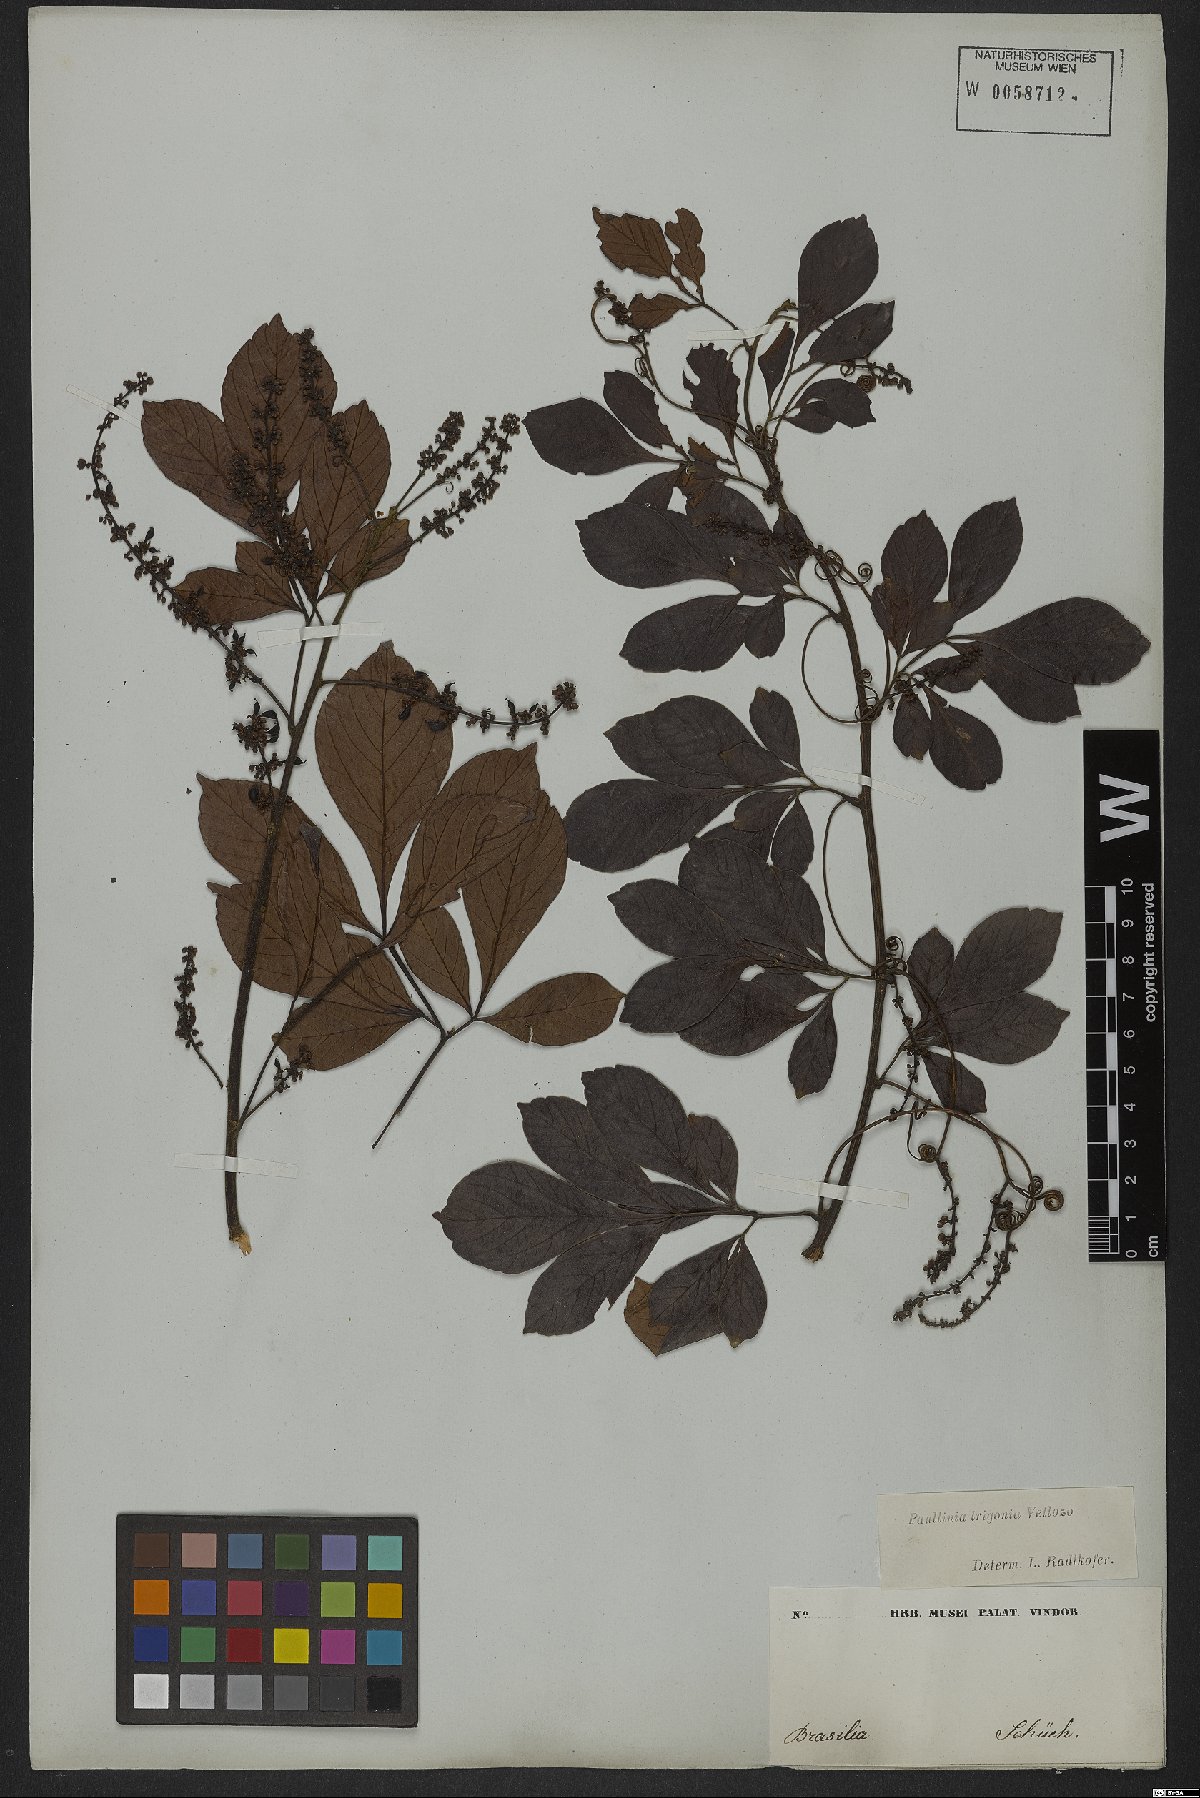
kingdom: Plantae
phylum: Tracheophyta
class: Magnoliopsida
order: Sapindales
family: Sapindaceae
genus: Paullinia
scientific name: Paullinia trigonia
